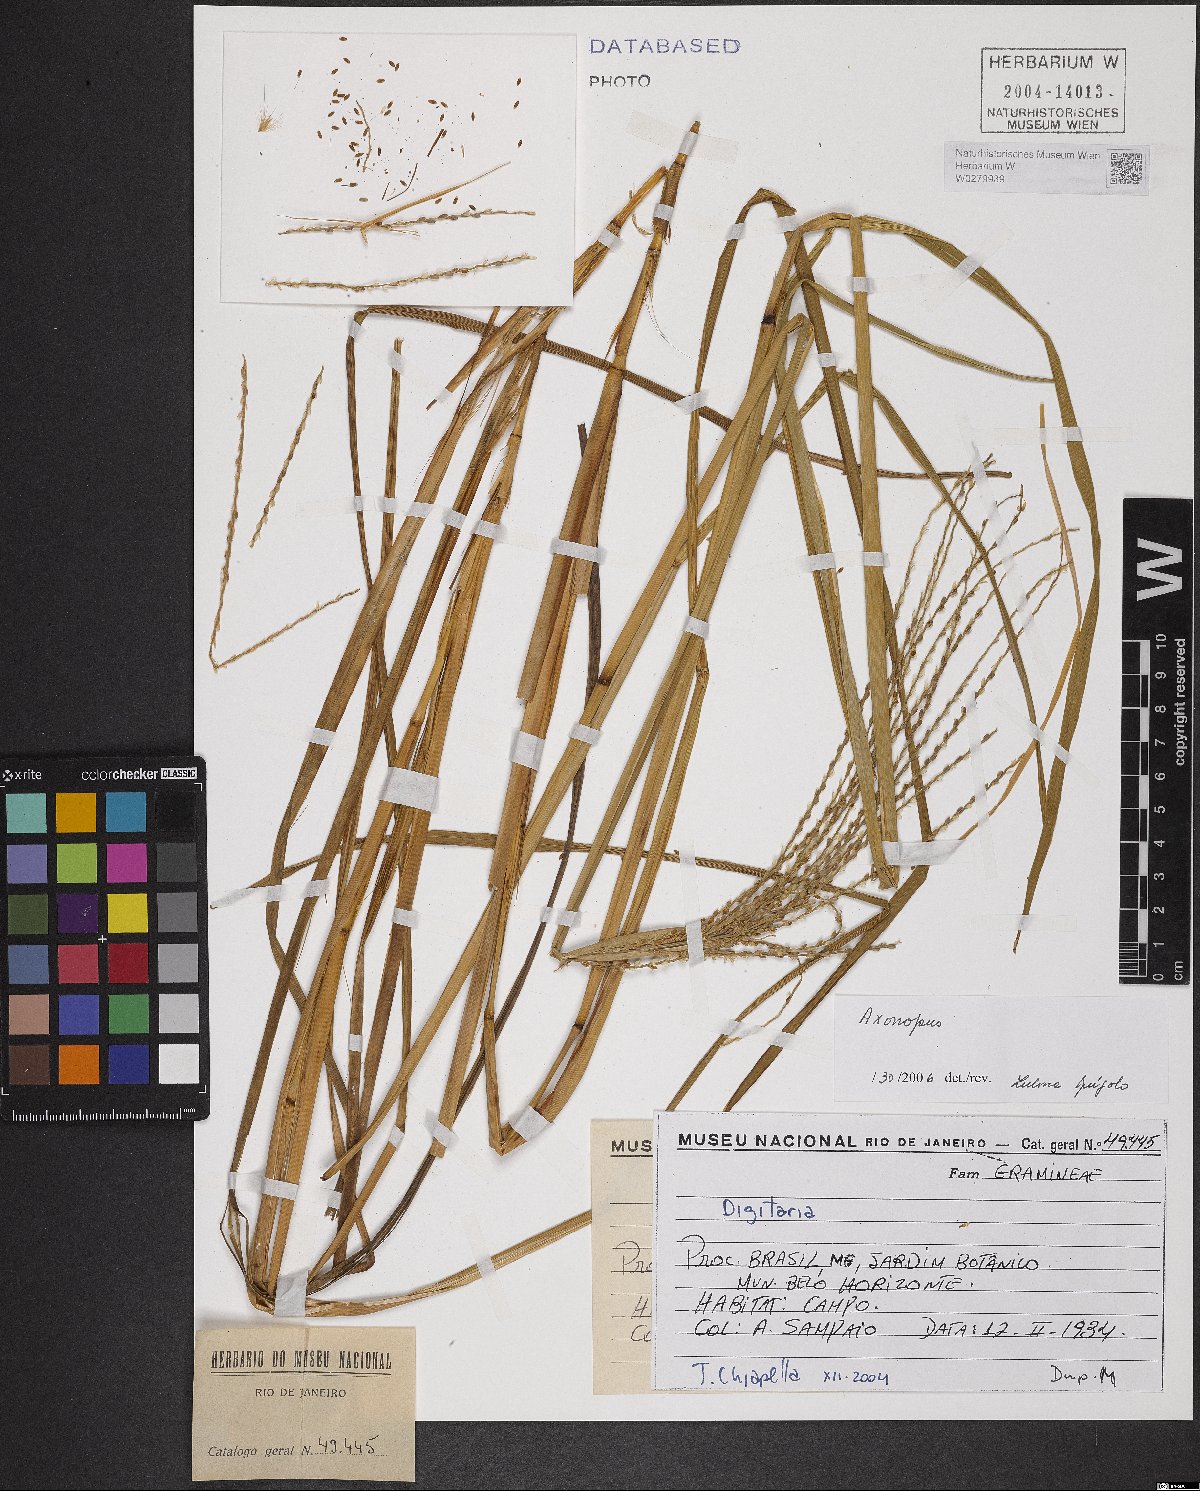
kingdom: Plantae
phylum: Tracheophyta
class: Liliopsida
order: Poales
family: Poaceae
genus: Axonopus
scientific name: Axonopus
